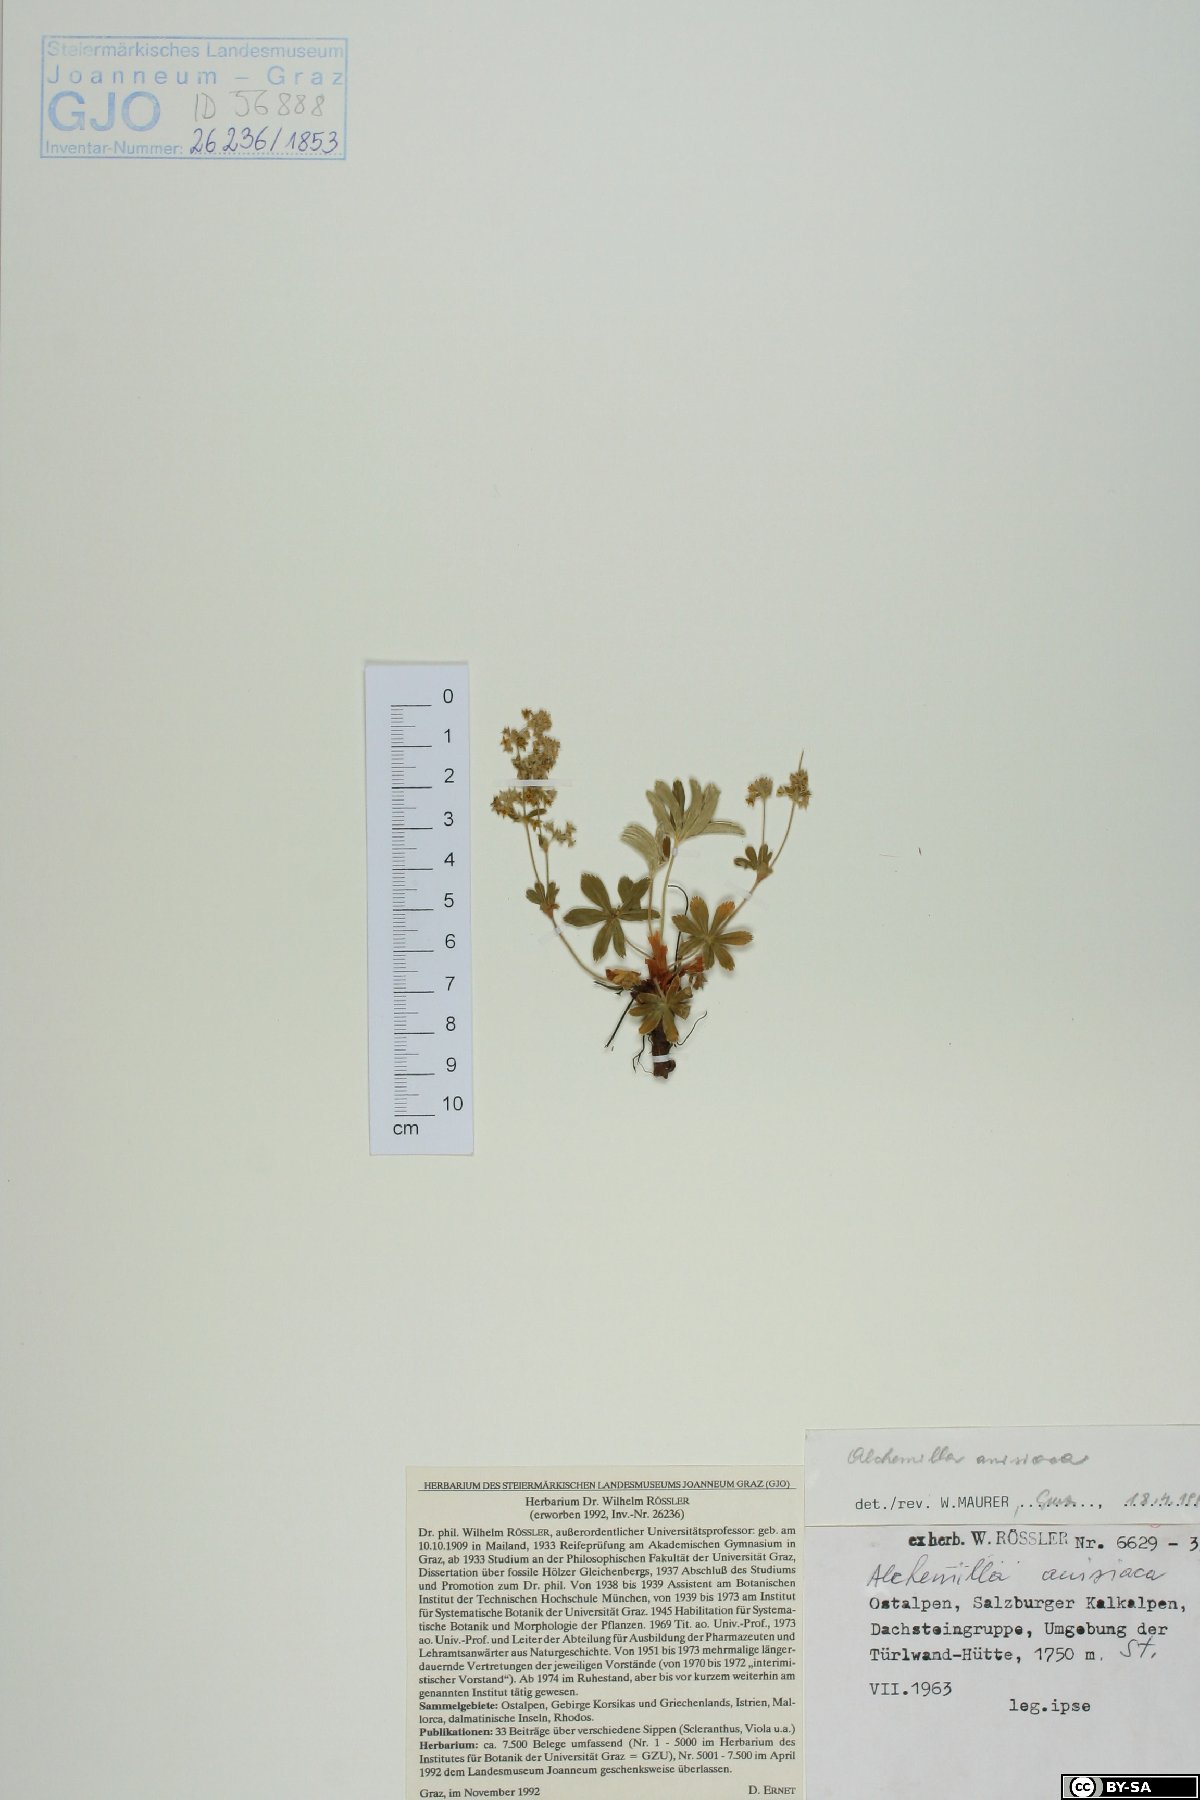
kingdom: Plantae
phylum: Tracheophyta
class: Magnoliopsida
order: Rosales
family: Rosaceae
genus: Alchemilla
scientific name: Alchemilla anisiaca
